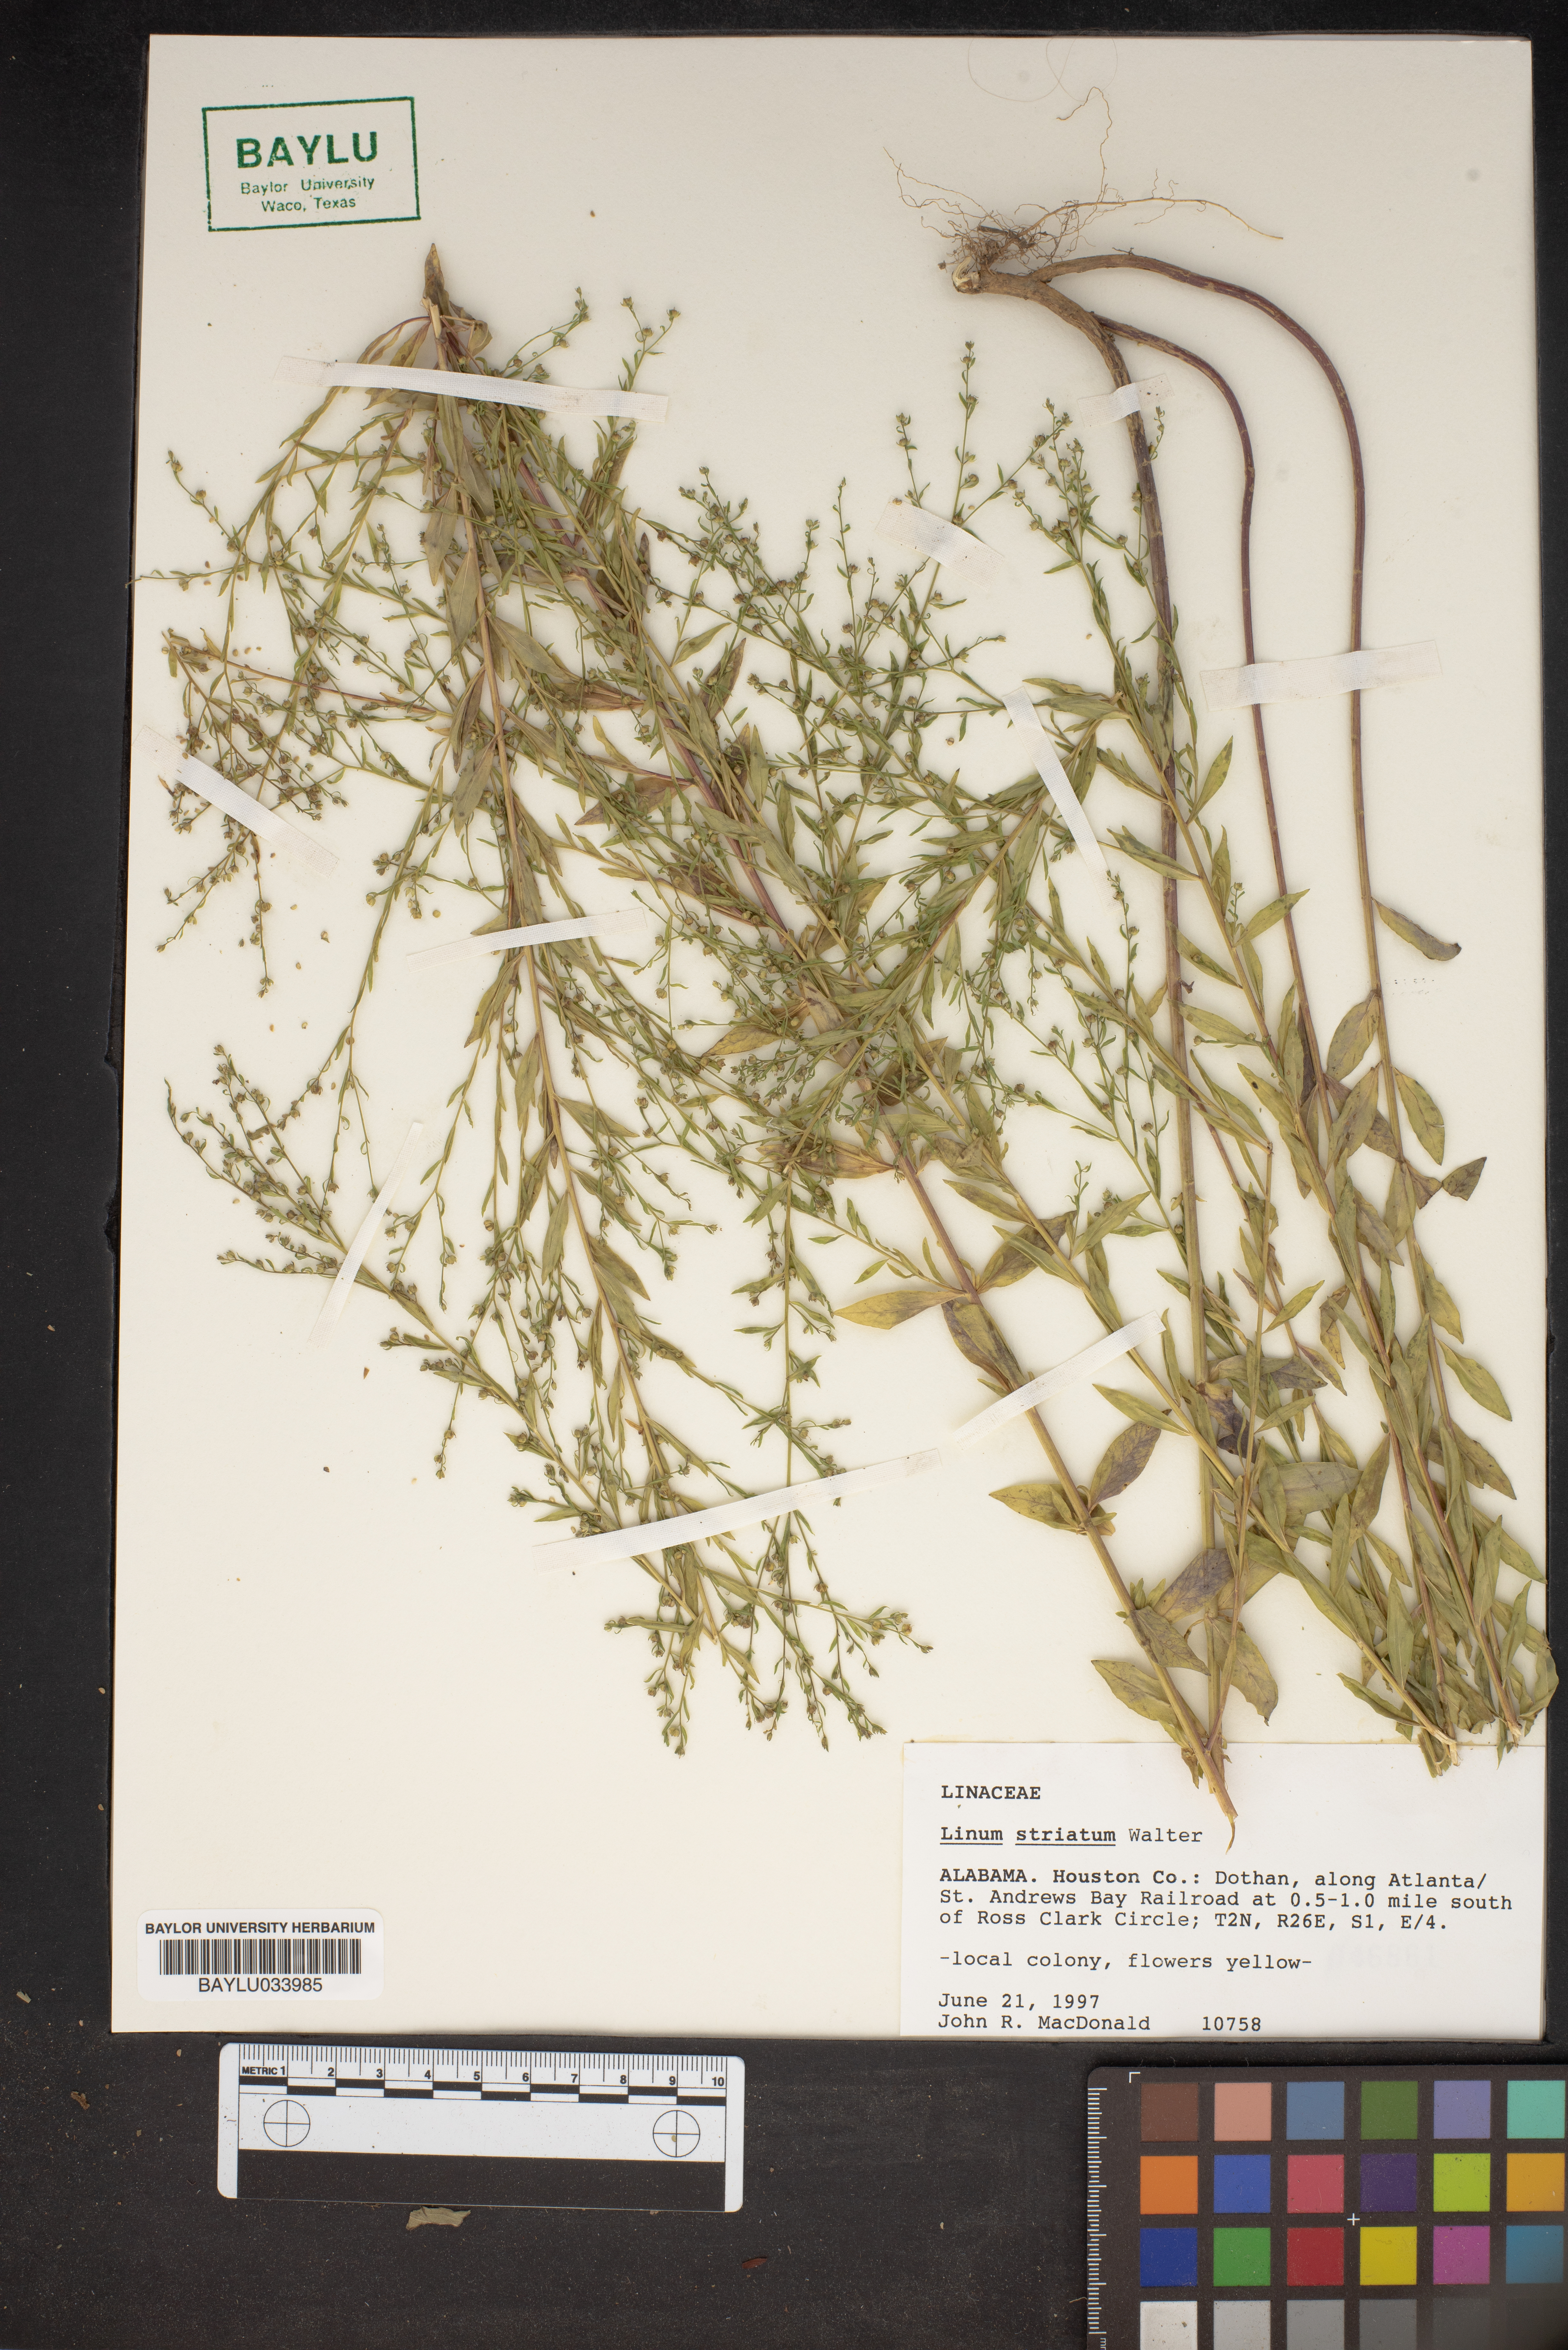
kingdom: Plantae
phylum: Tracheophyta
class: Magnoliopsida
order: Malpighiales
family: Linaceae
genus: Linum
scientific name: Linum striatum
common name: Ridged yellow flax
